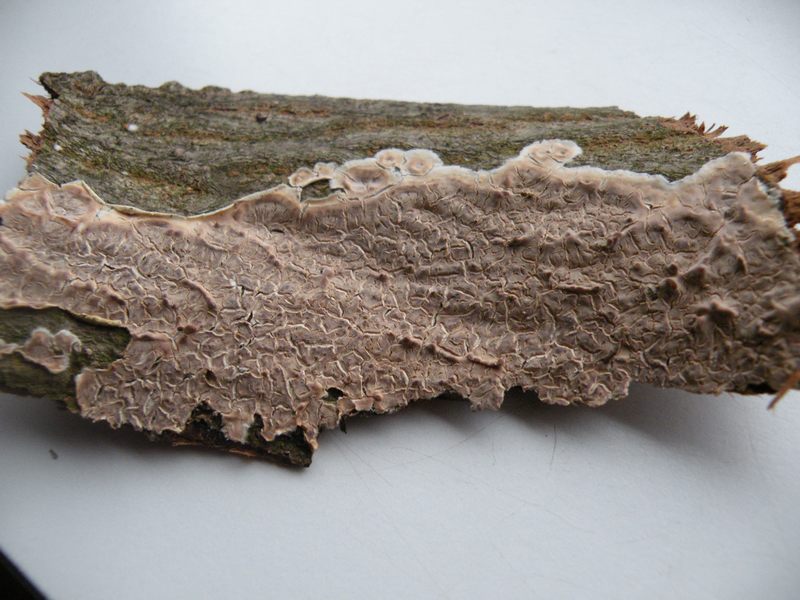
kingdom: Fungi
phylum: Basidiomycota
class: Agaricomycetes
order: Agaricales
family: Physalacriaceae
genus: Cylindrobasidium
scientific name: Cylindrobasidium evolvens
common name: sprækkehinde
